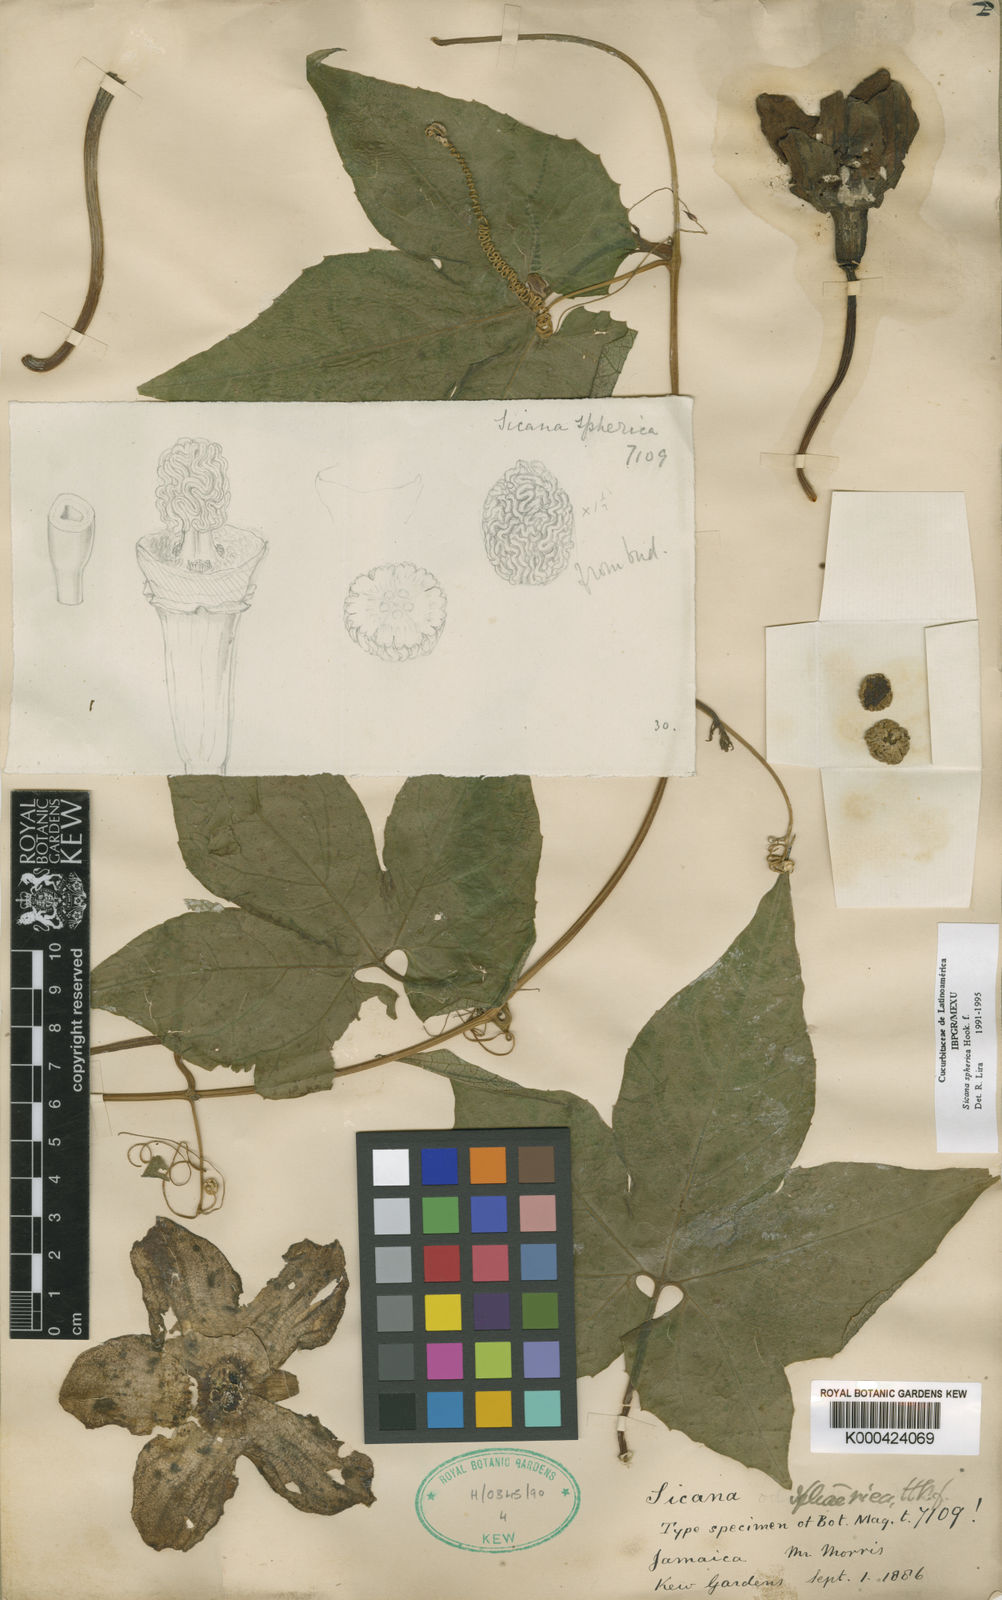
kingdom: Plantae
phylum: Tracheophyta
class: Magnoliopsida
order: Cucurbitales
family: Cucurbitaceae
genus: Sicana
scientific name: Sicana sphaerica
